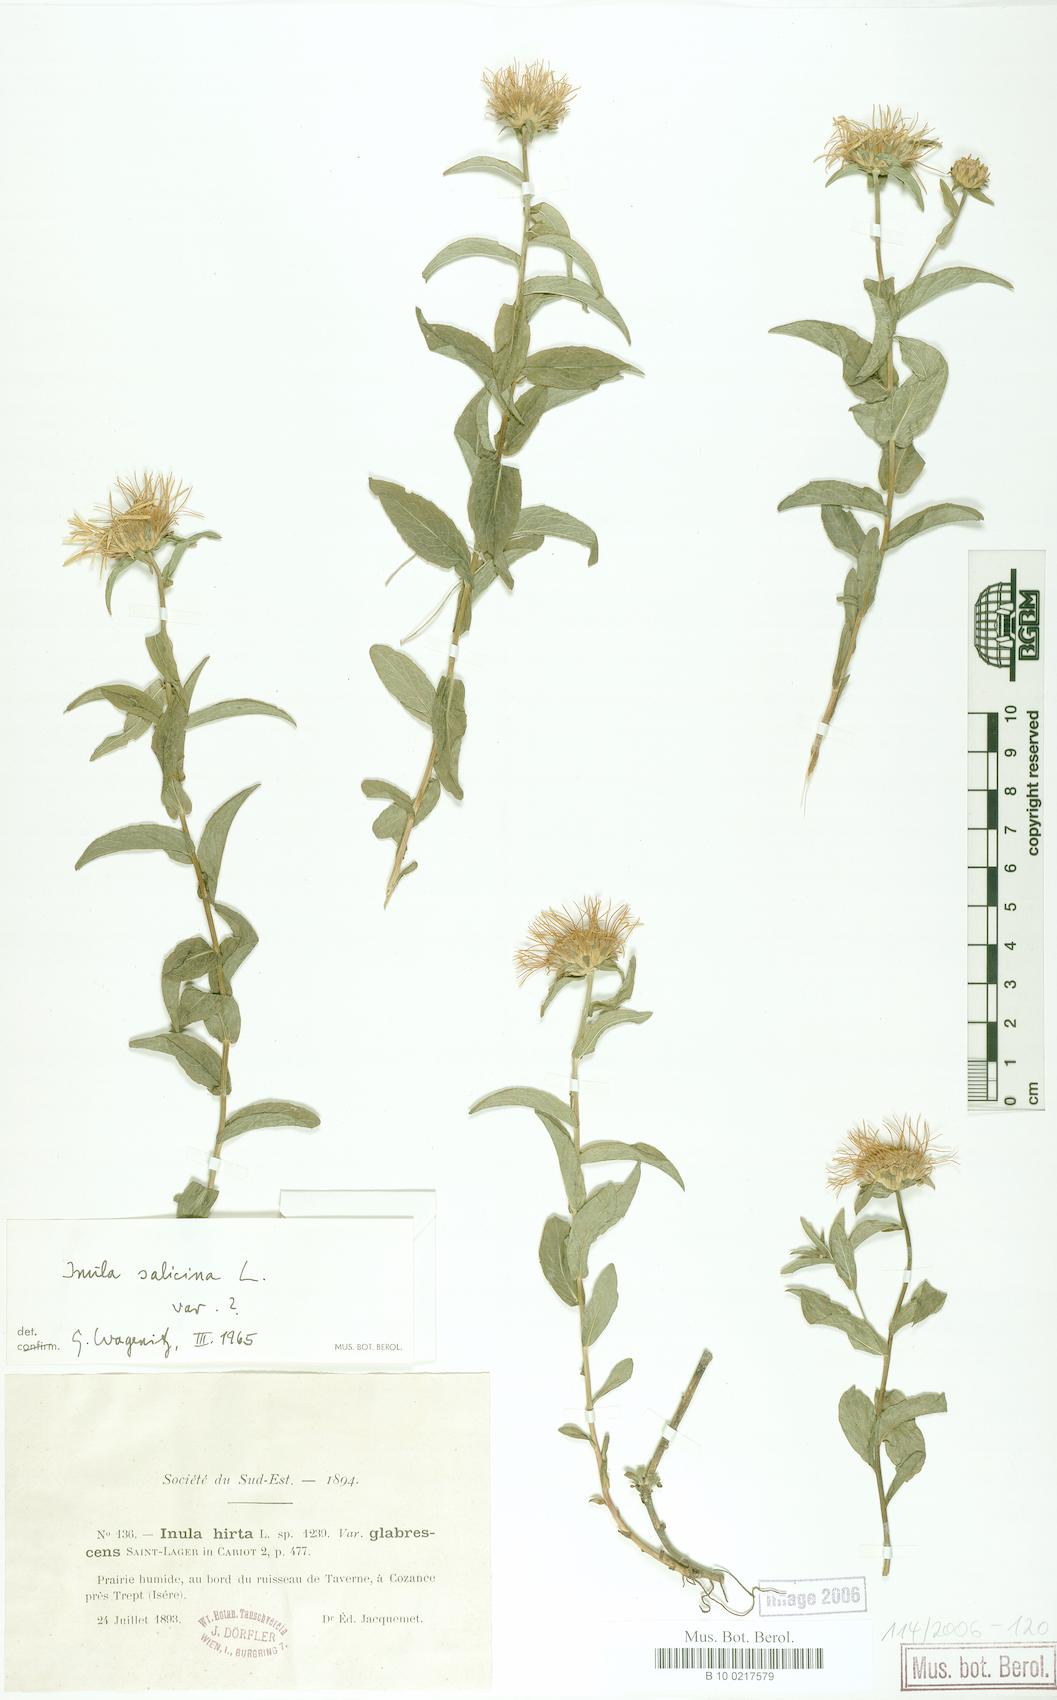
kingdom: Plantae
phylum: Tracheophyta
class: Magnoliopsida
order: Asterales
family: Asteraceae
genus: Pentanema
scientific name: Pentanema salicinum
